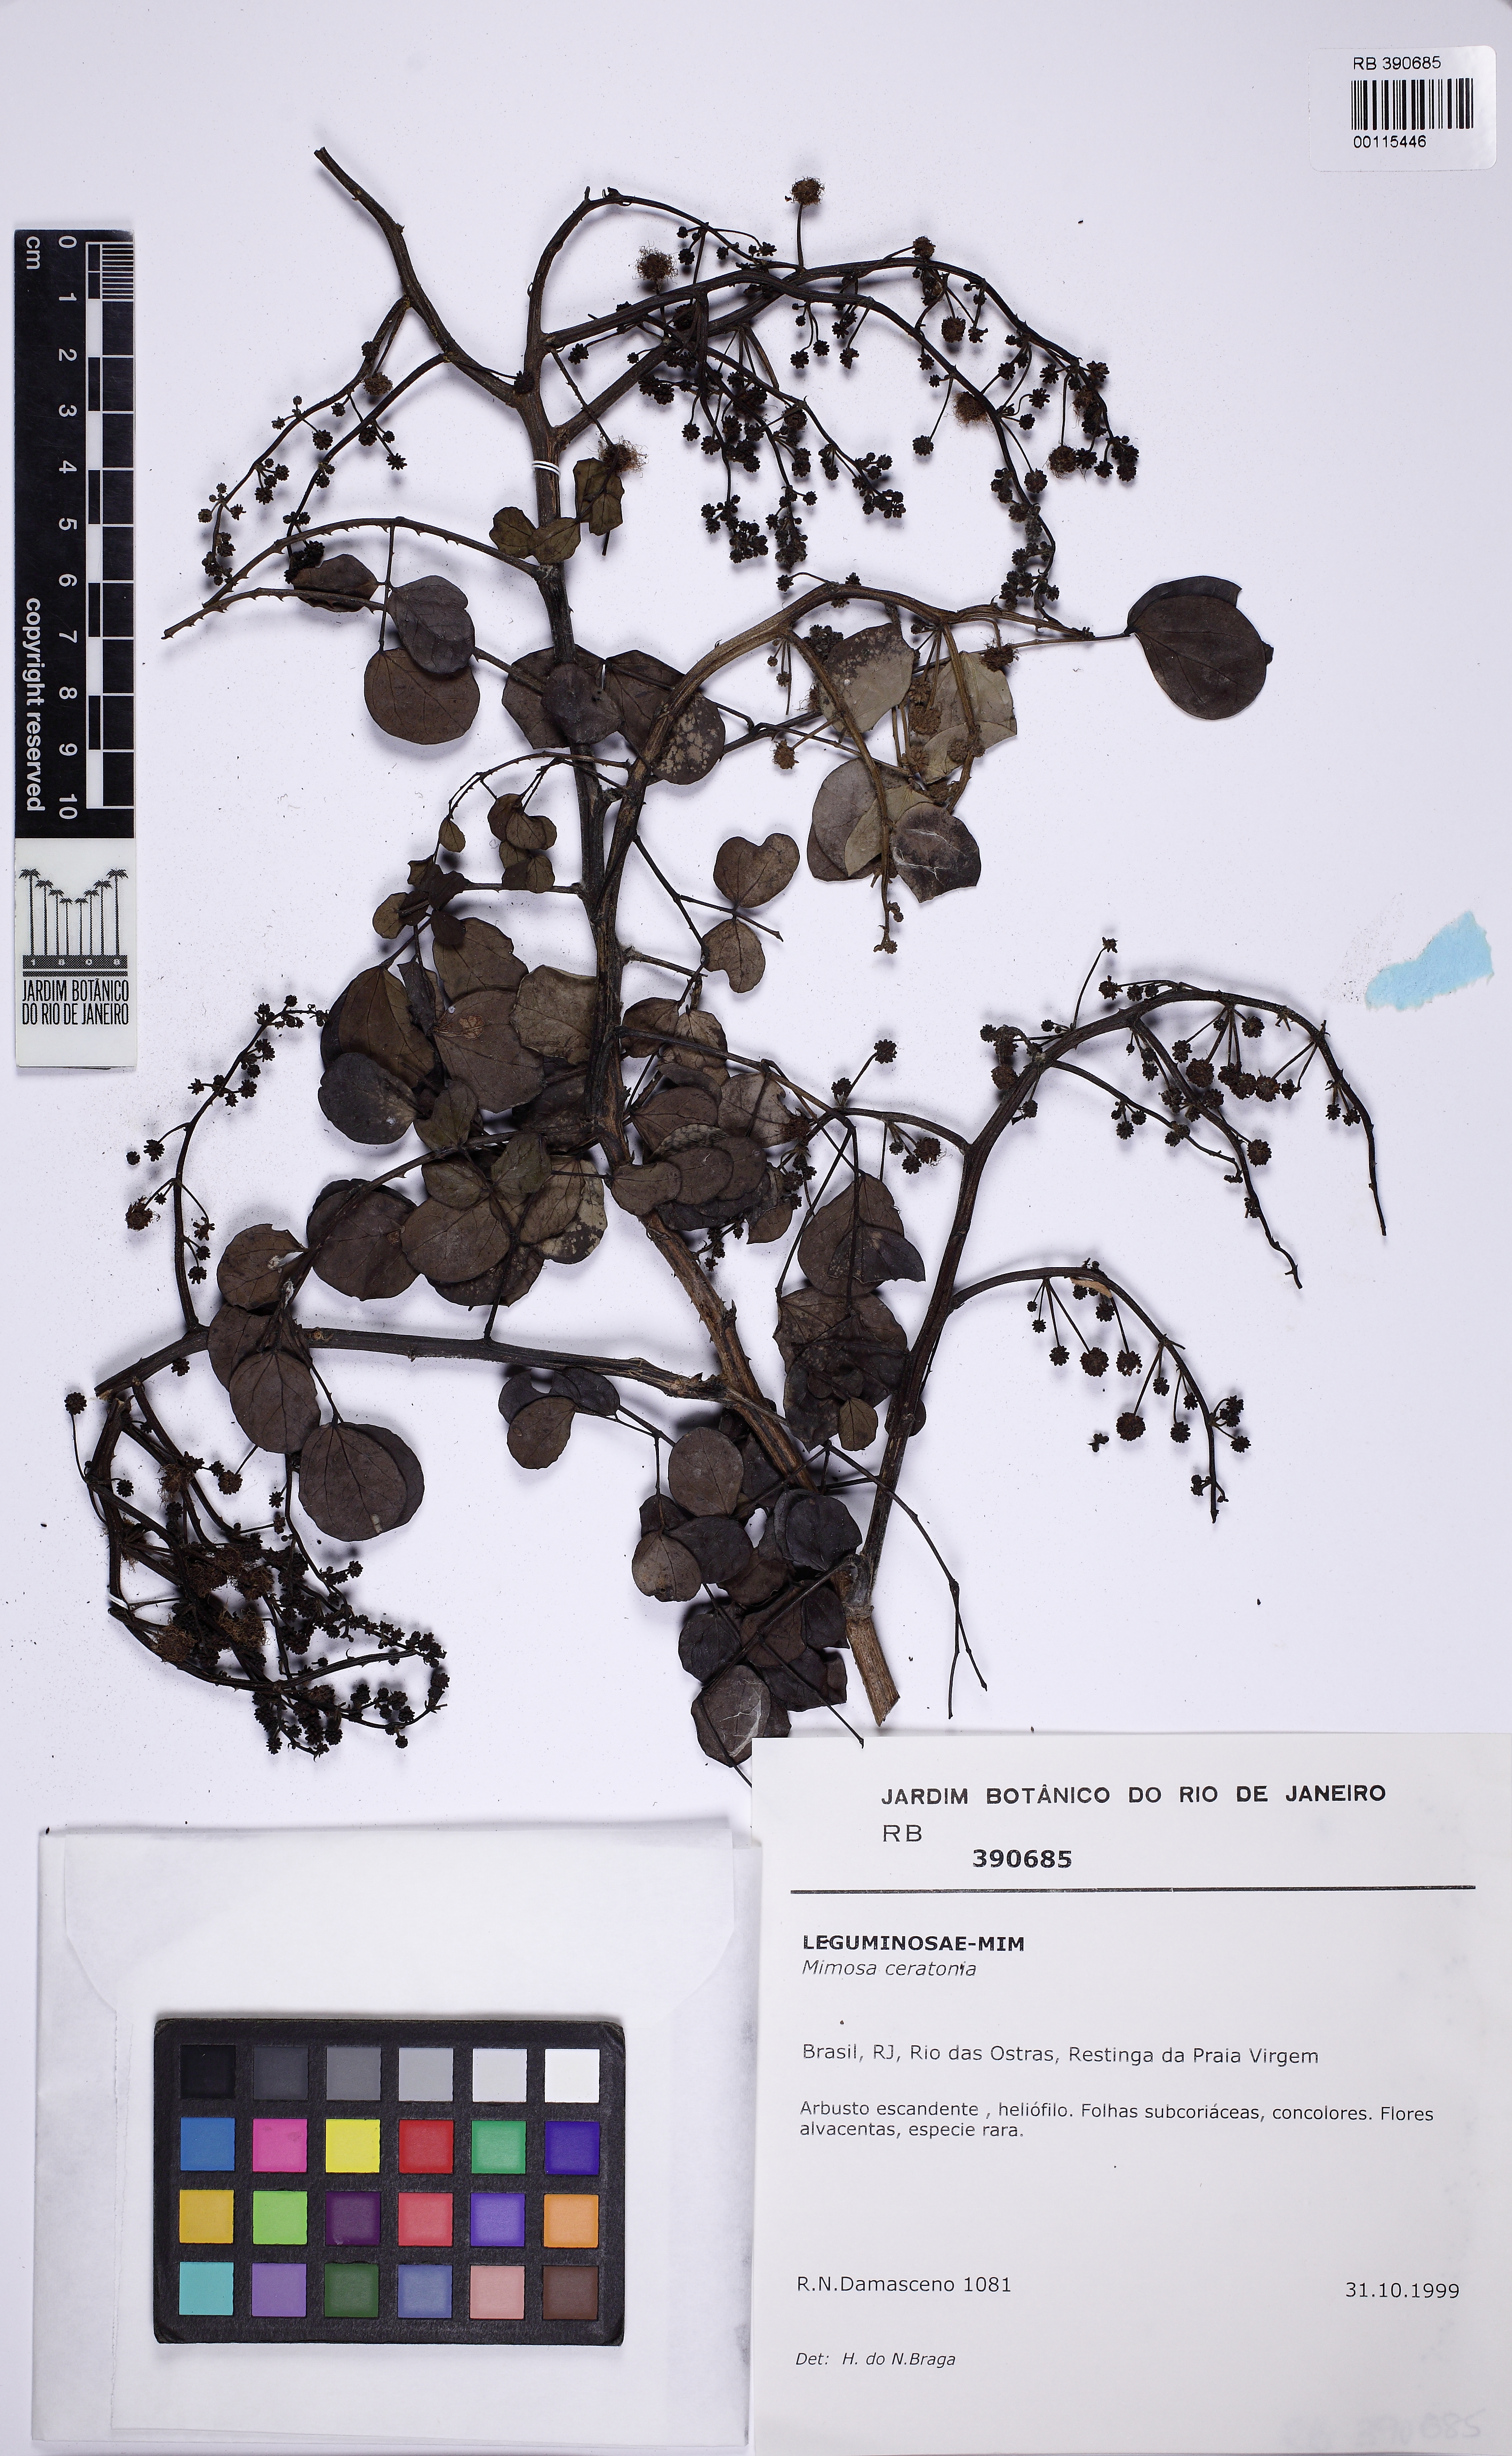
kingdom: Plantae
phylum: Tracheophyta
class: Magnoliopsida
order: Fabales
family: Fabaceae
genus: Mimosa
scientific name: Mimosa ceratonia
